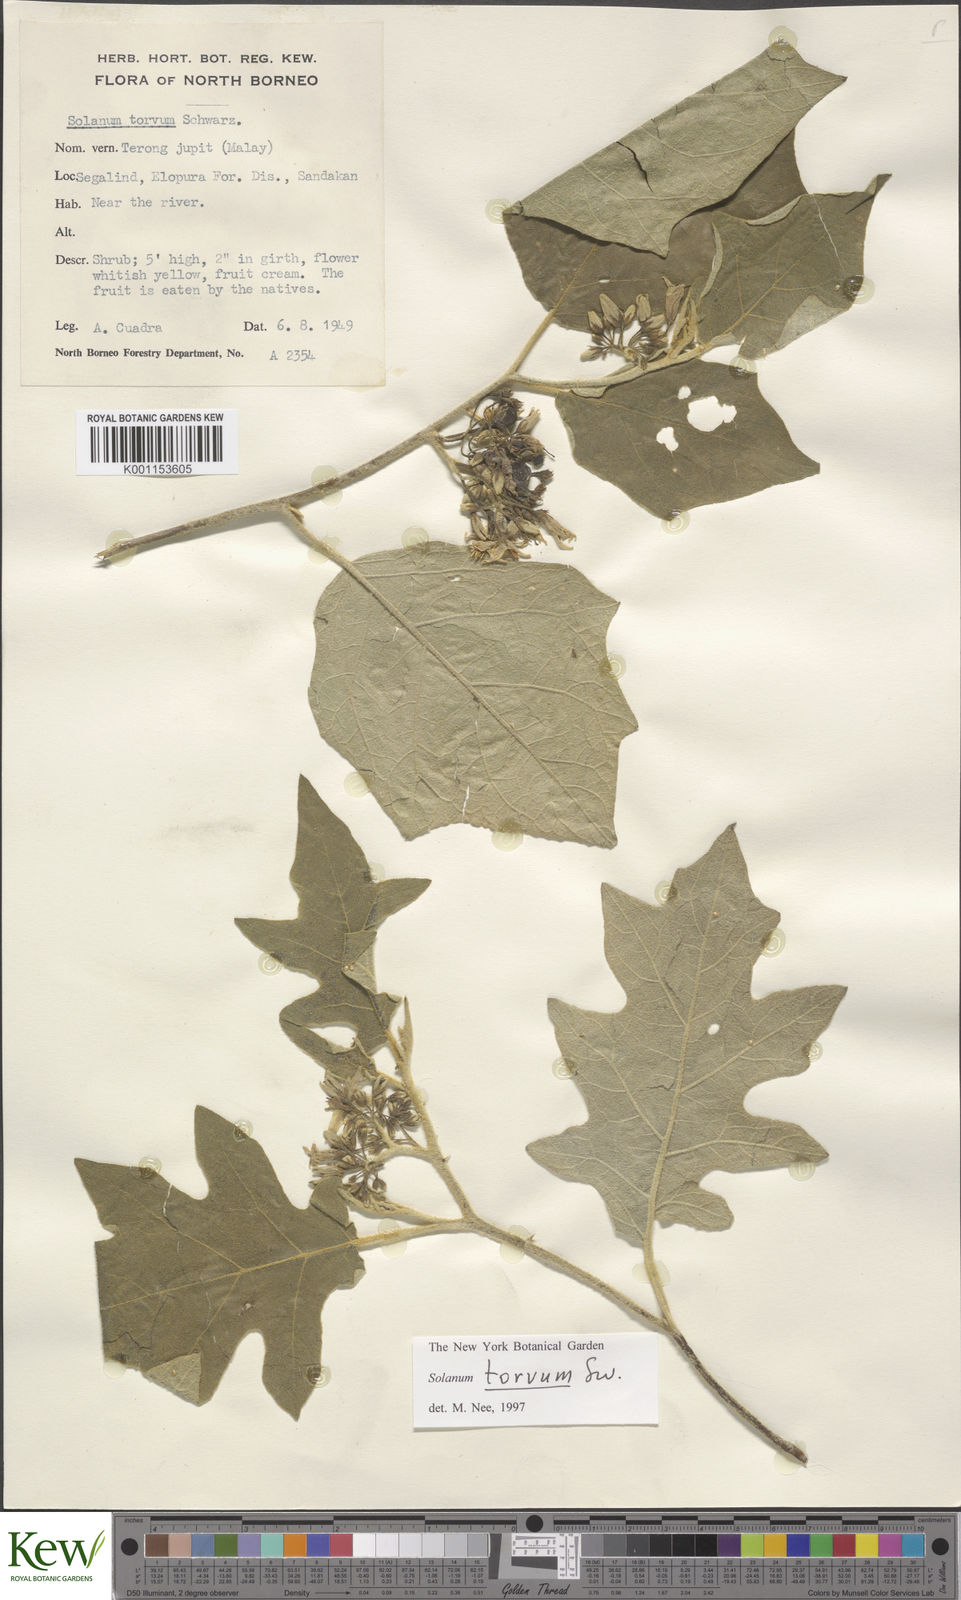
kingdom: Plantae
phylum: Tracheophyta
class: Magnoliopsida
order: Solanales
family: Solanaceae
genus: Solanum
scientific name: Solanum torvum
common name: Turkey berry
